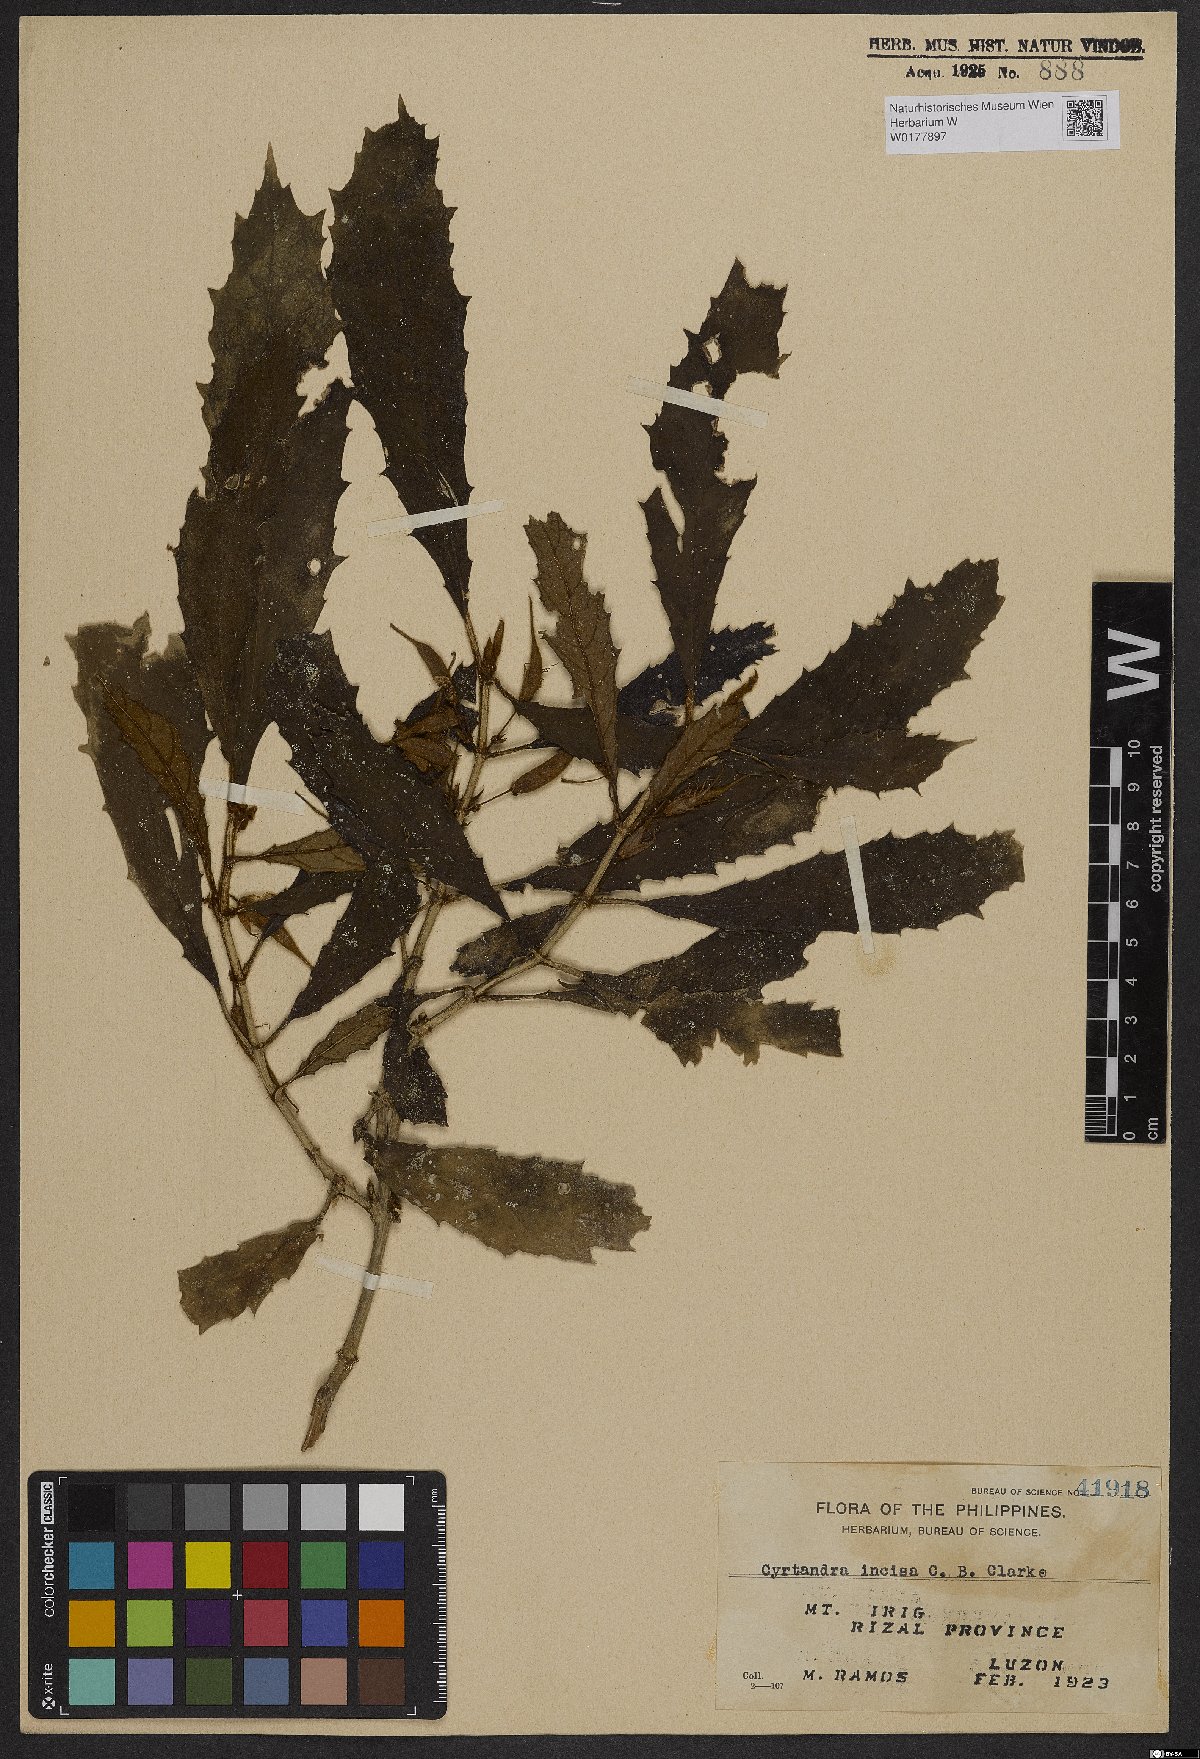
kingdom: Plantae
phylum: Tracheophyta
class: Magnoliopsida
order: Lamiales
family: Gesneriaceae
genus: Cyrtandra
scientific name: Cyrtandra incisa
